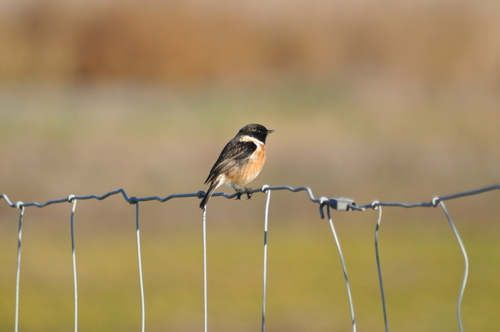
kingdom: Animalia
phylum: Chordata
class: Aves
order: Passeriformes
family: Muscicapidae
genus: Saxicola
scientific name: Saxicola rubicola
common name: European stonechat
